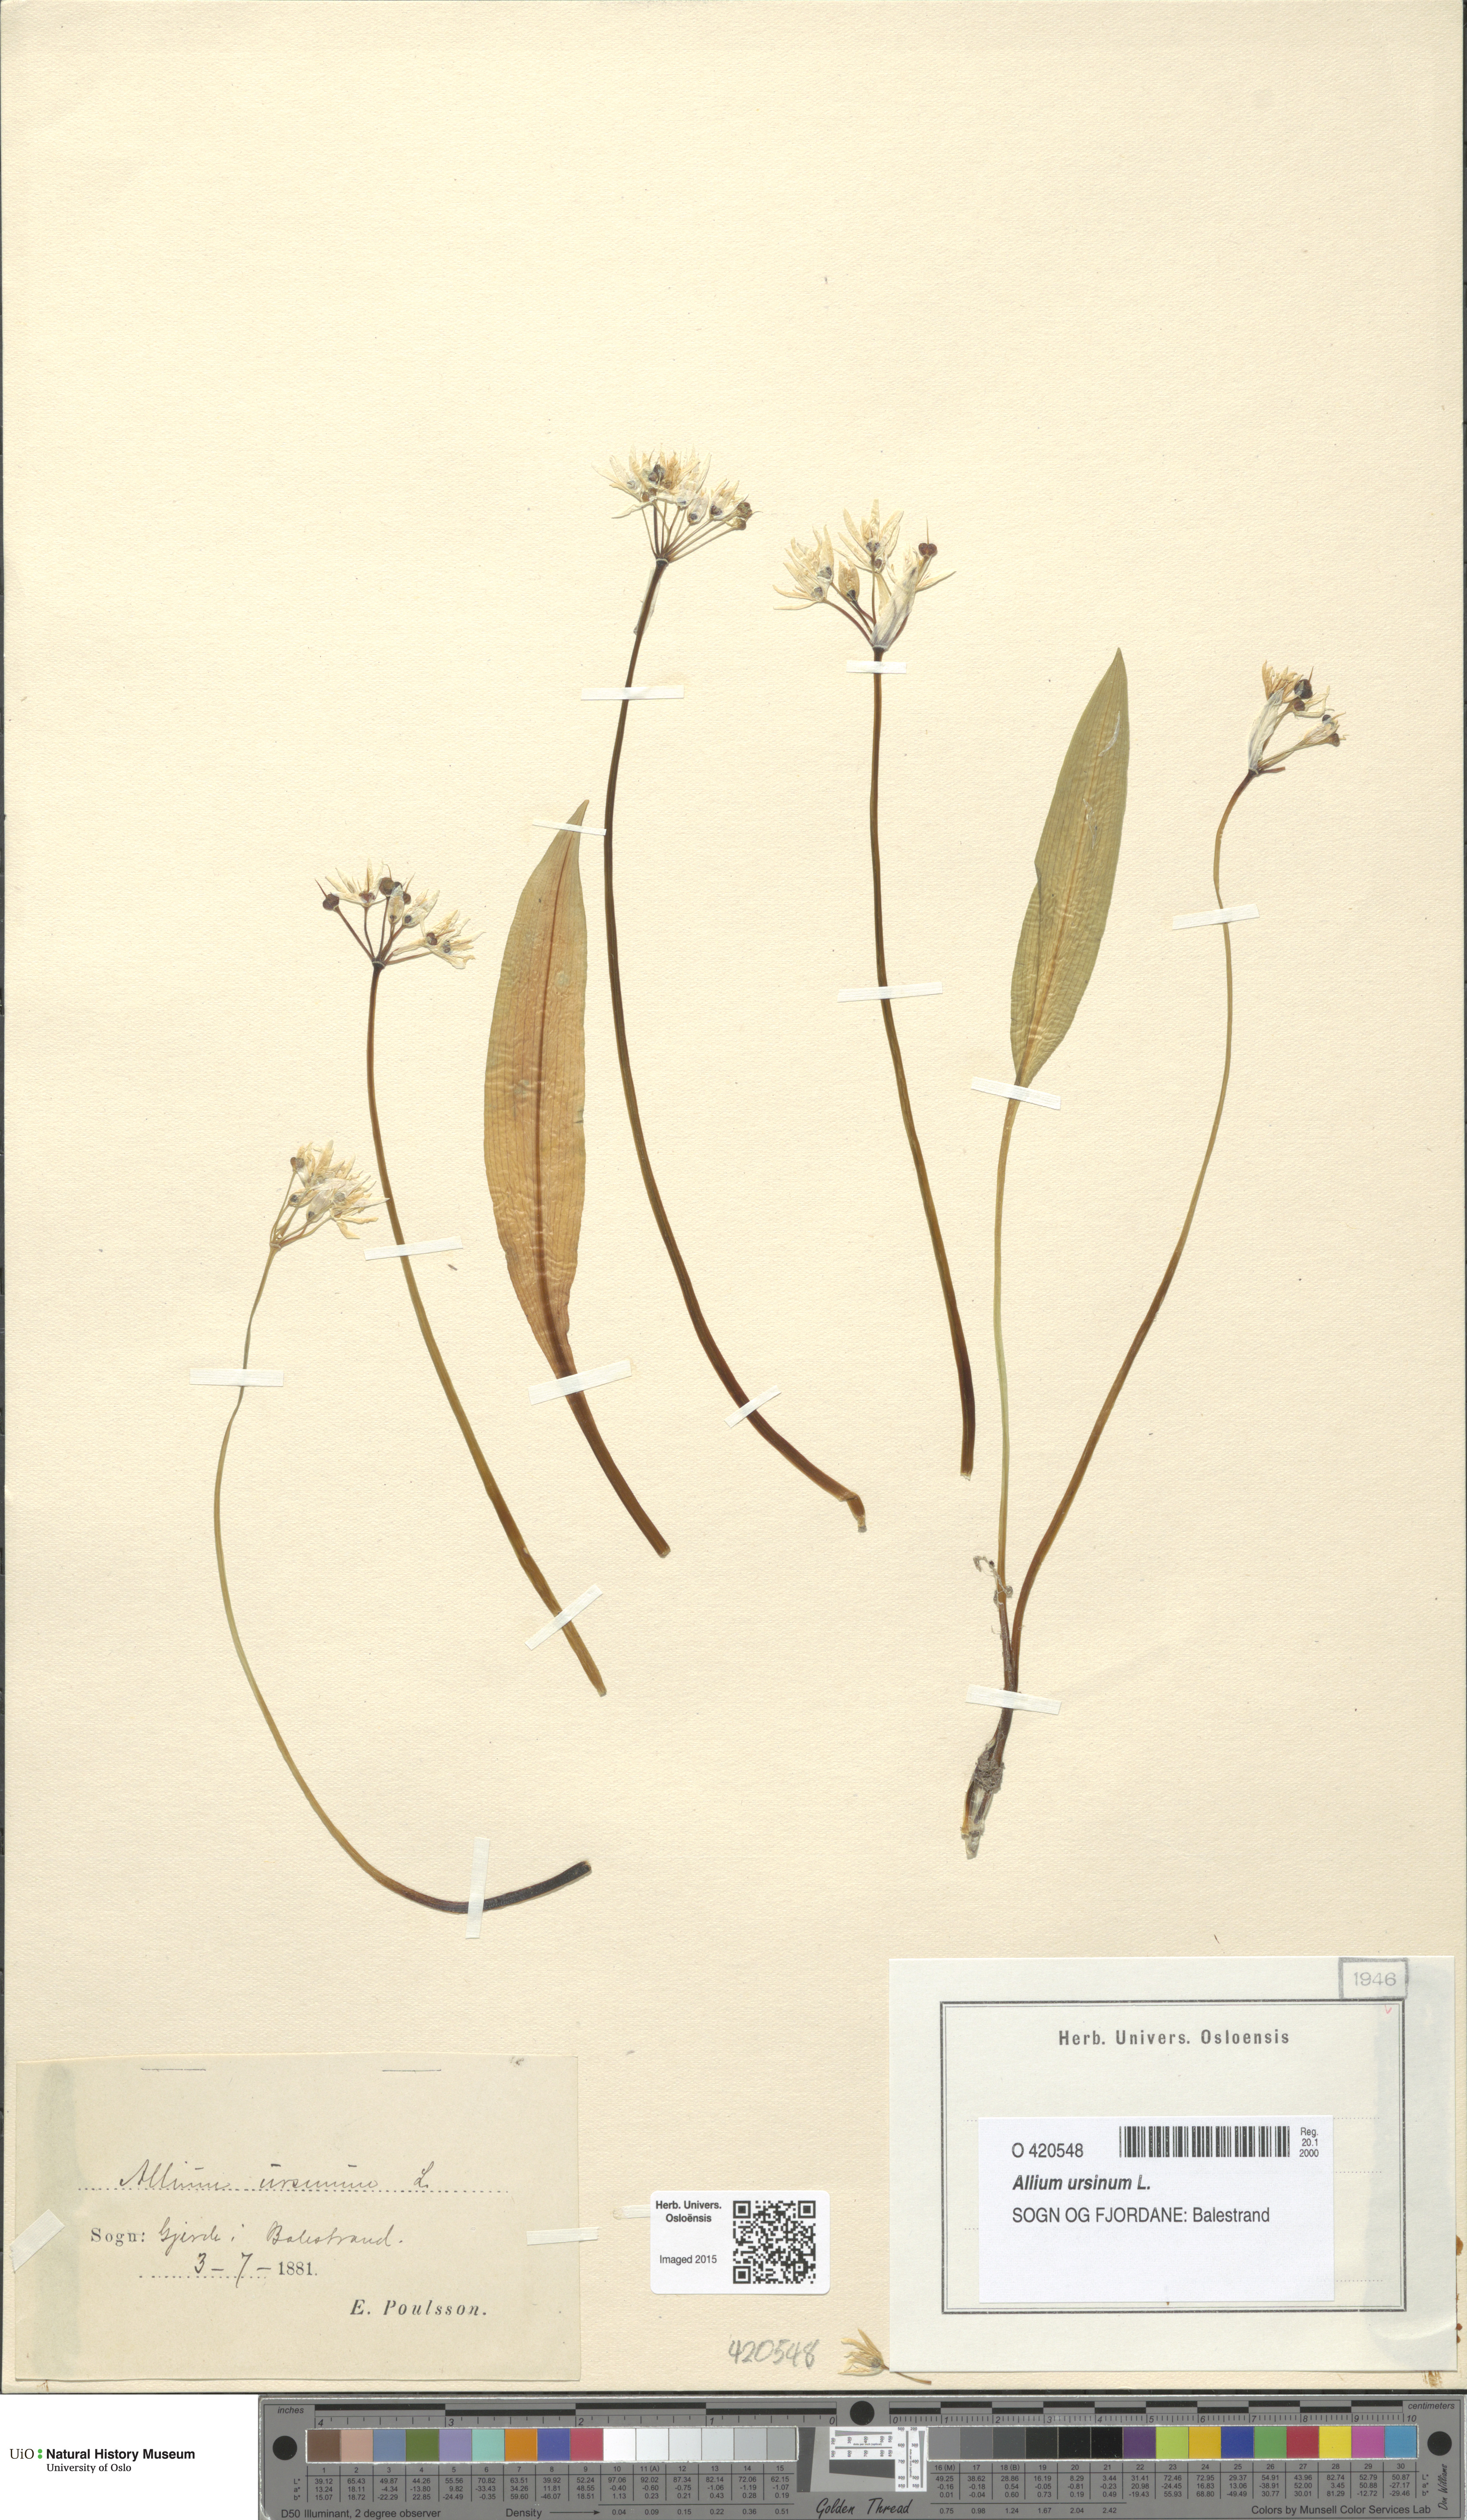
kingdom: Plantae
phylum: Tracheophyta
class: Liliopsida
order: Asparagales
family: Amaryllidaceae
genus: Allium
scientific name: Allium ursinum
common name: Ramsons
